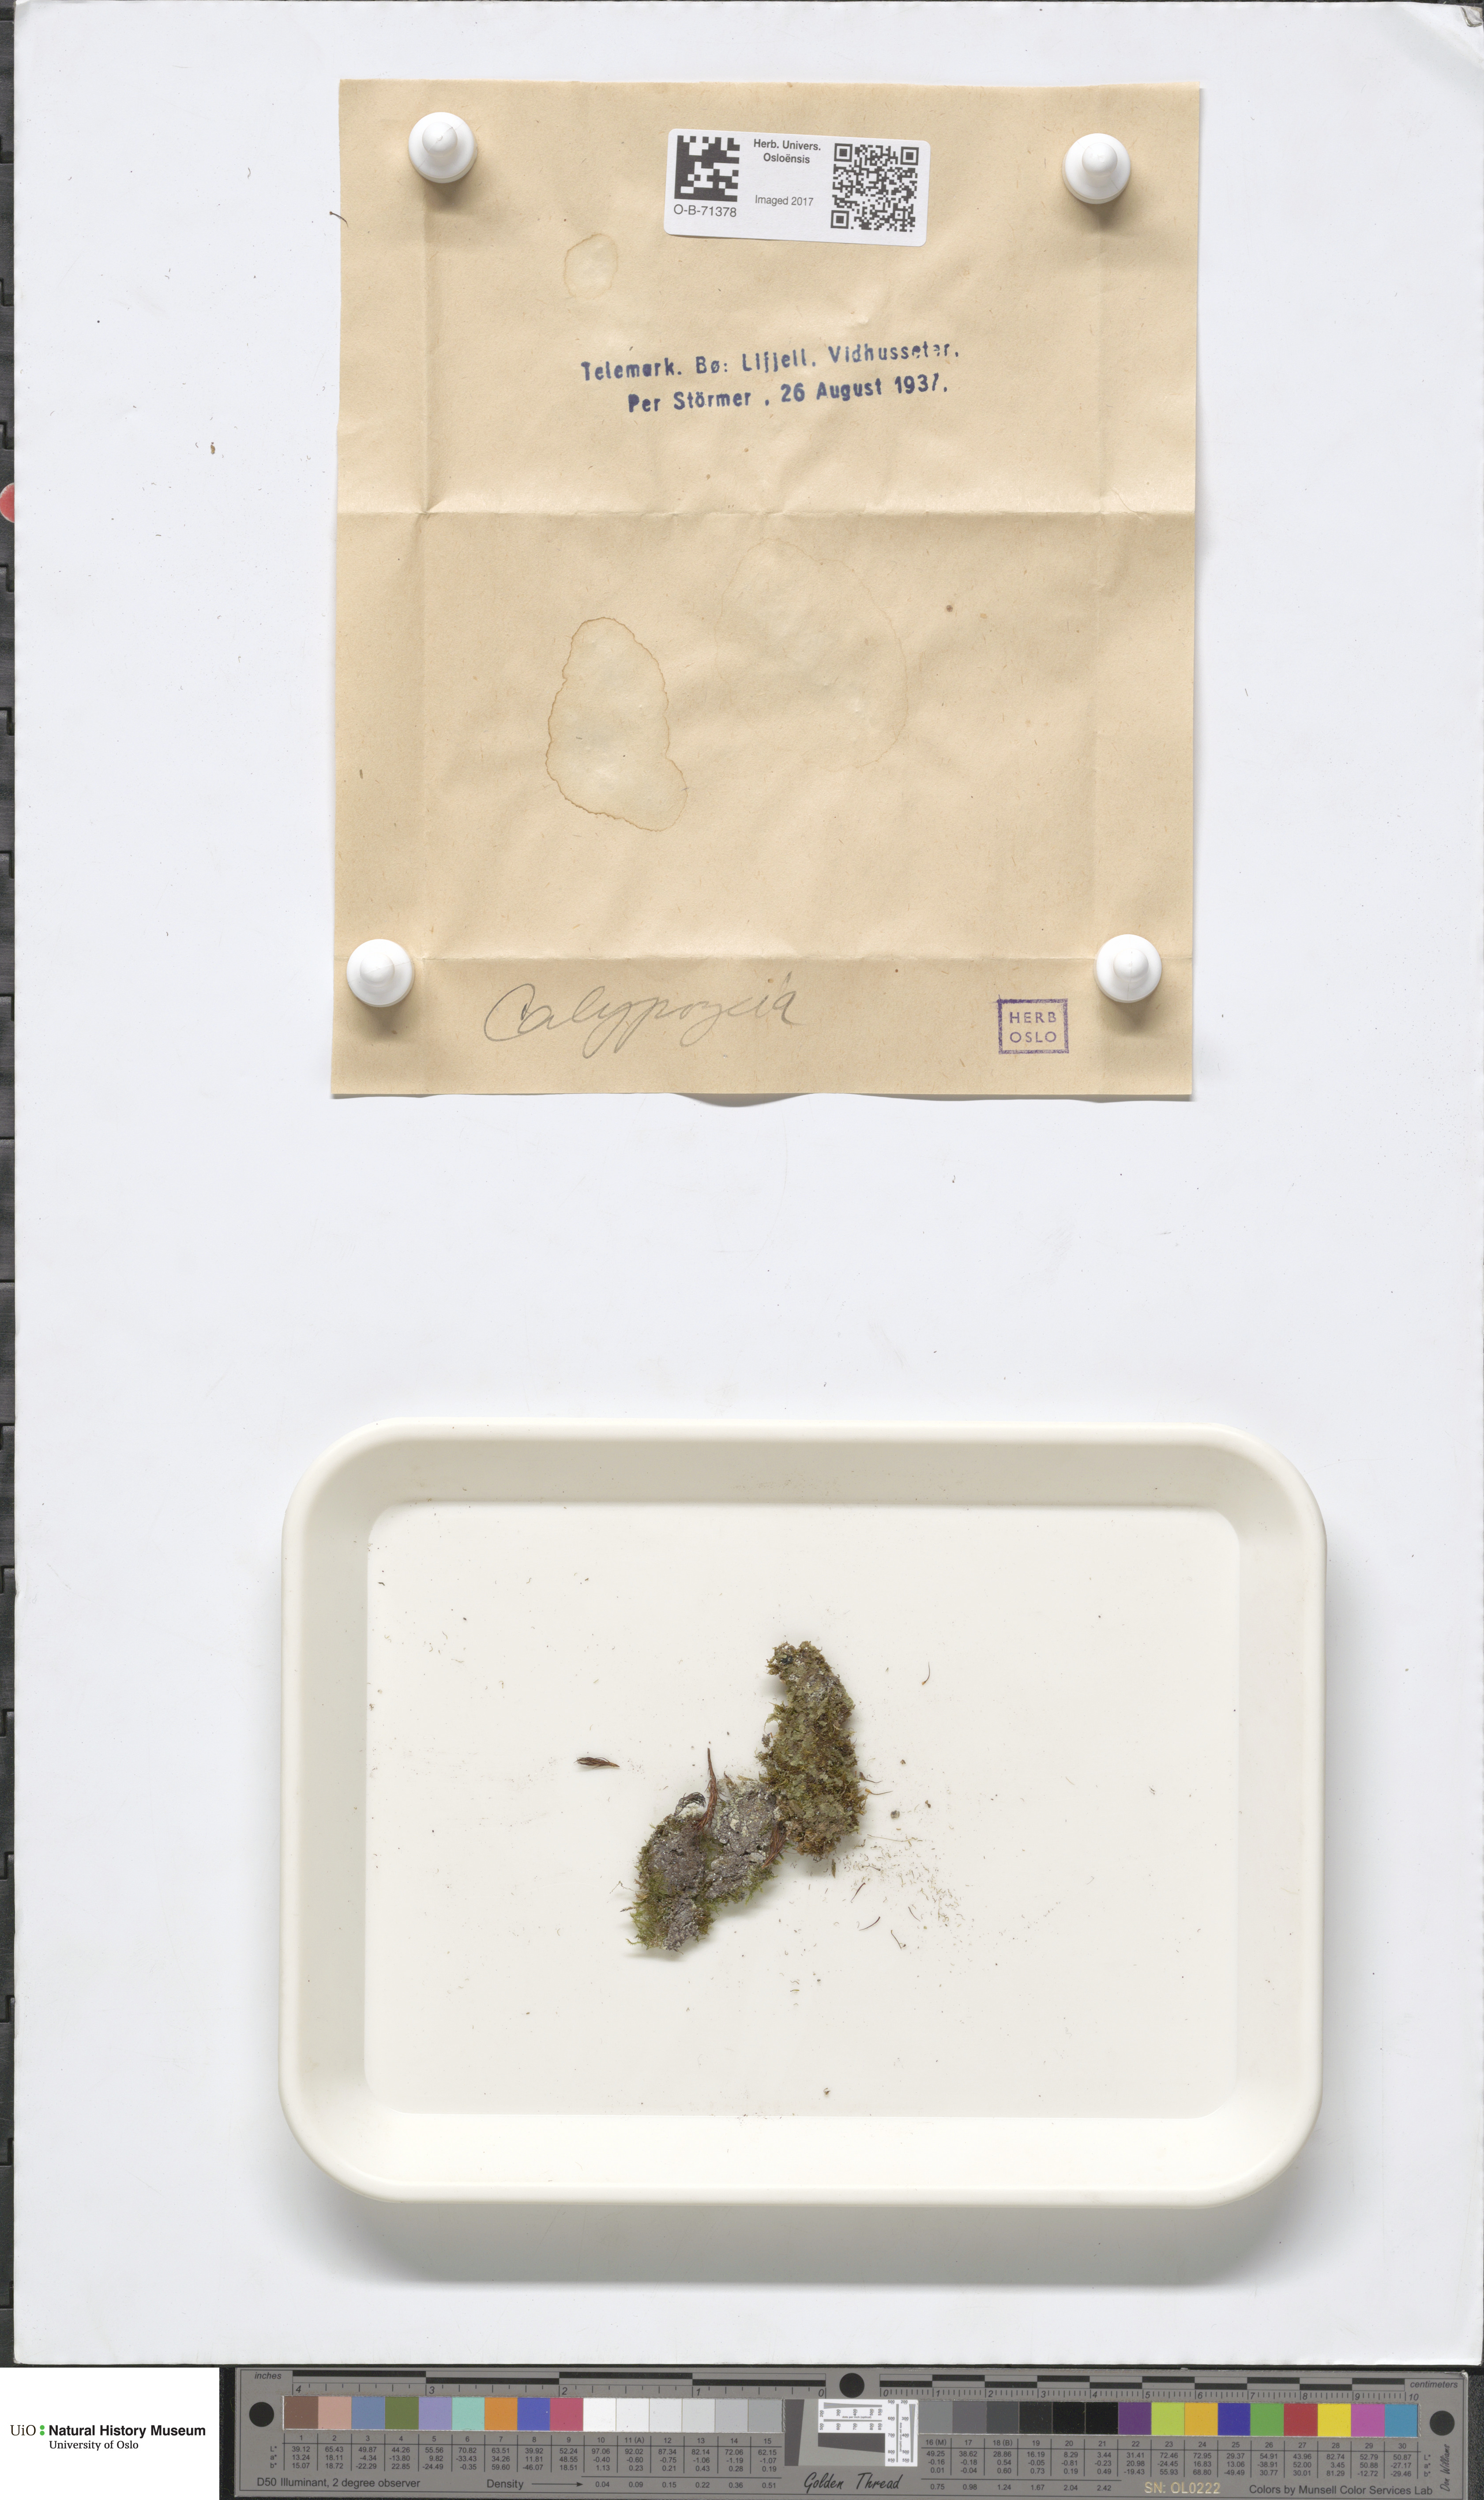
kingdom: Plantae
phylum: Marchantiophyta
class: Jungermanniopsida
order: Jungermanniales
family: Calypogeiaceae
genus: Calypogeia
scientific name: Calypogeia
